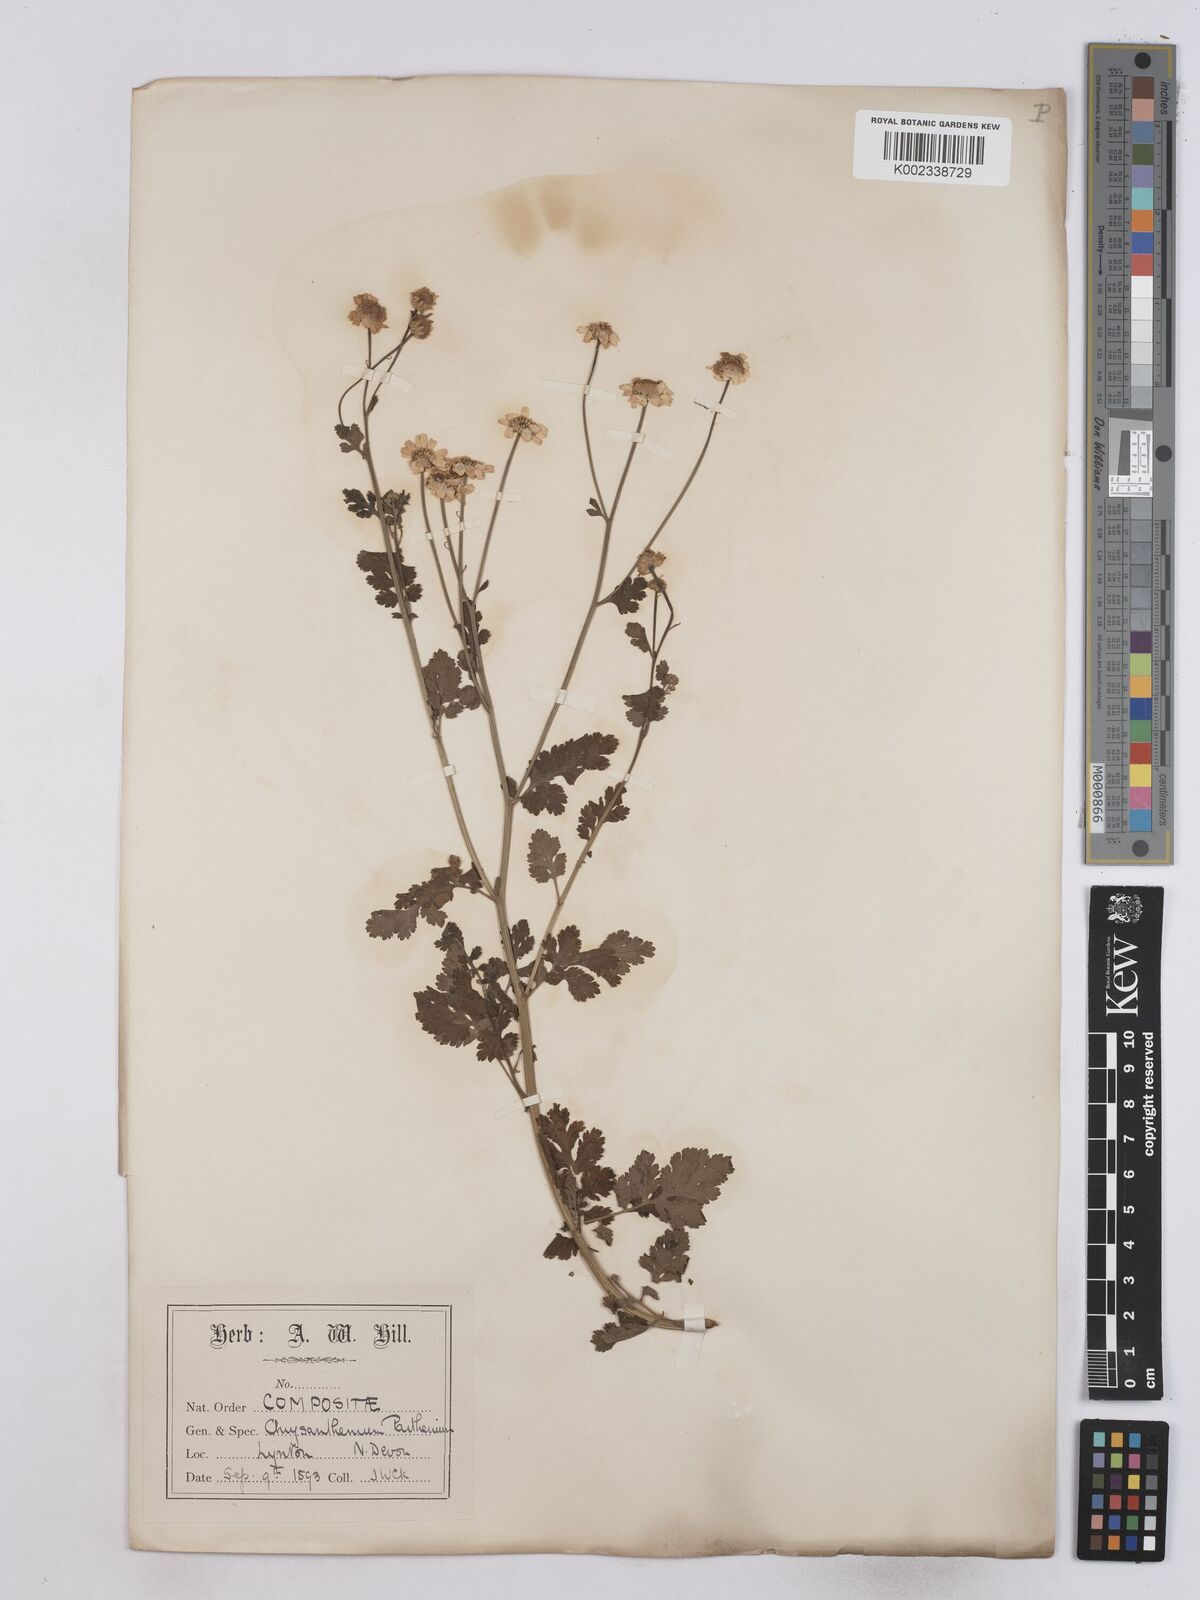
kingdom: Plantae
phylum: Tracheophyta
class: Magnoliopsida
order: Asterales
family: Asteraceae
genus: Tanacetum
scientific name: Tanacetum parthenium
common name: Feverfew
